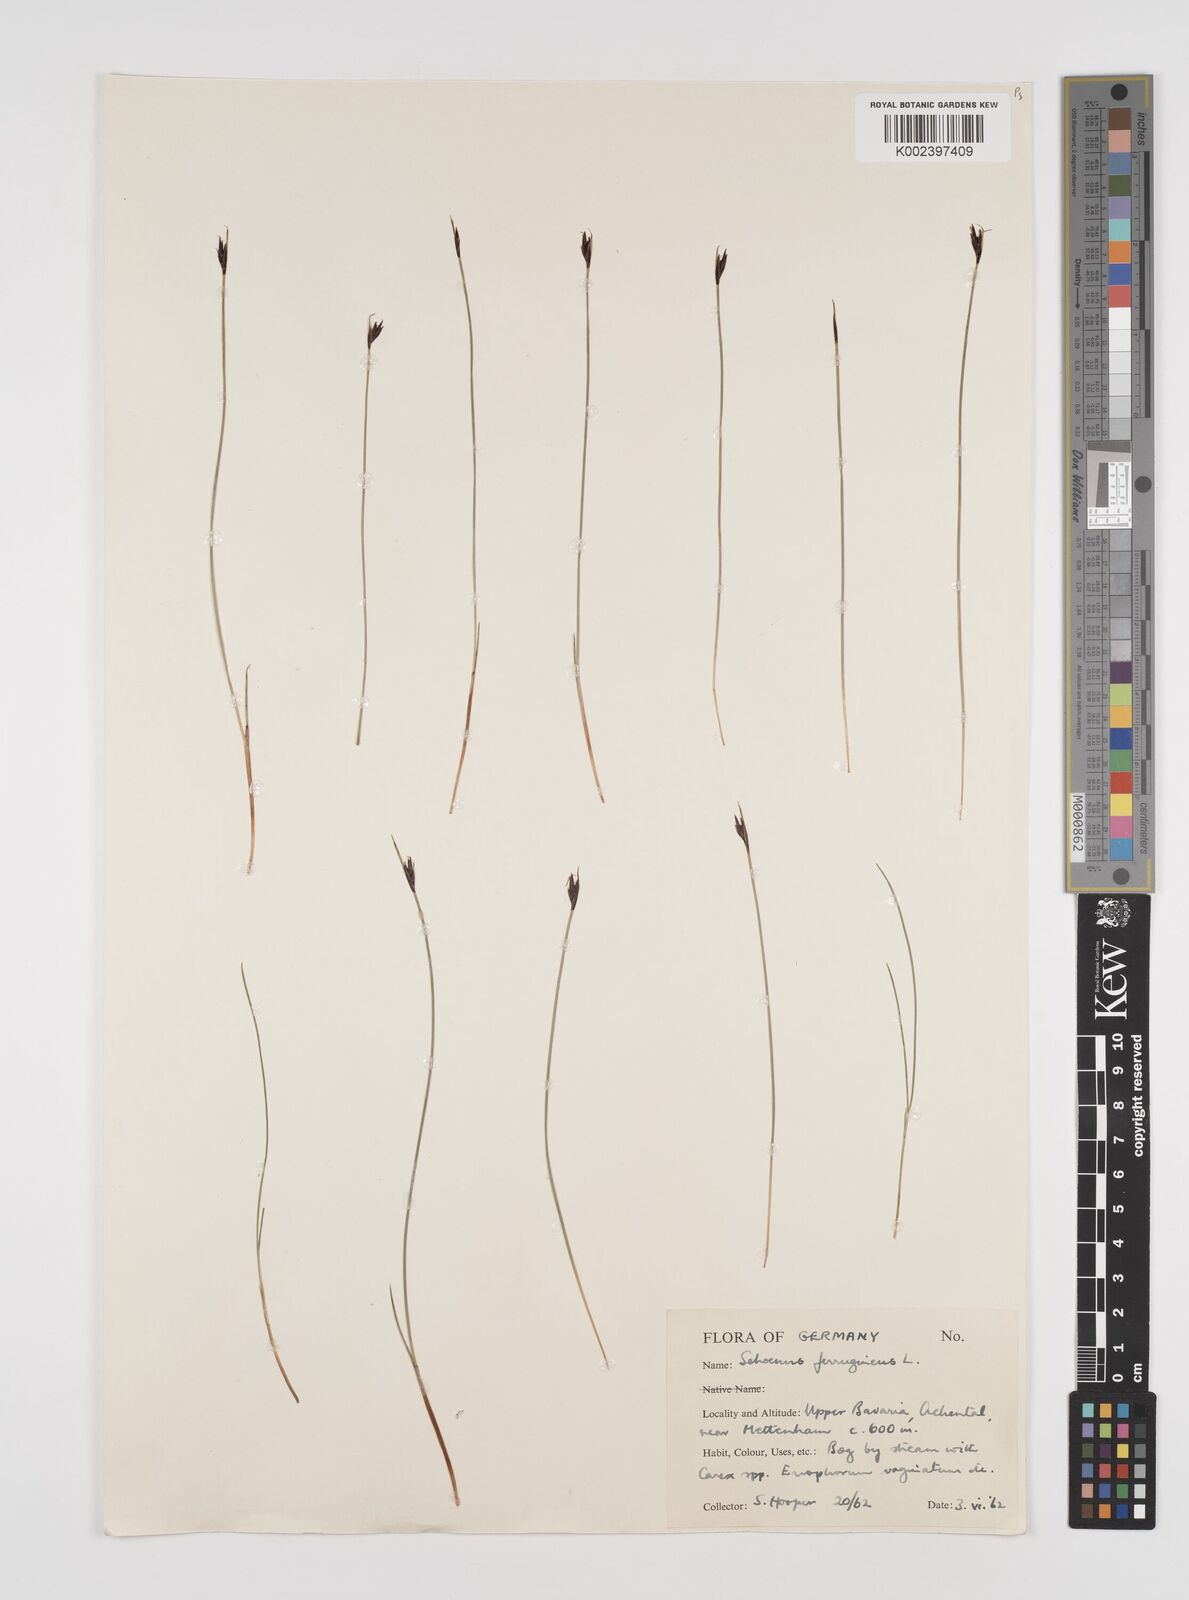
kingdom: Plantae
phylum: Tracheophyta
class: Liliopsida
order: Poales
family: Cyperaceae
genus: Schoenus
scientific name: Schoenus ferrugineus
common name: Brown bog-rush
